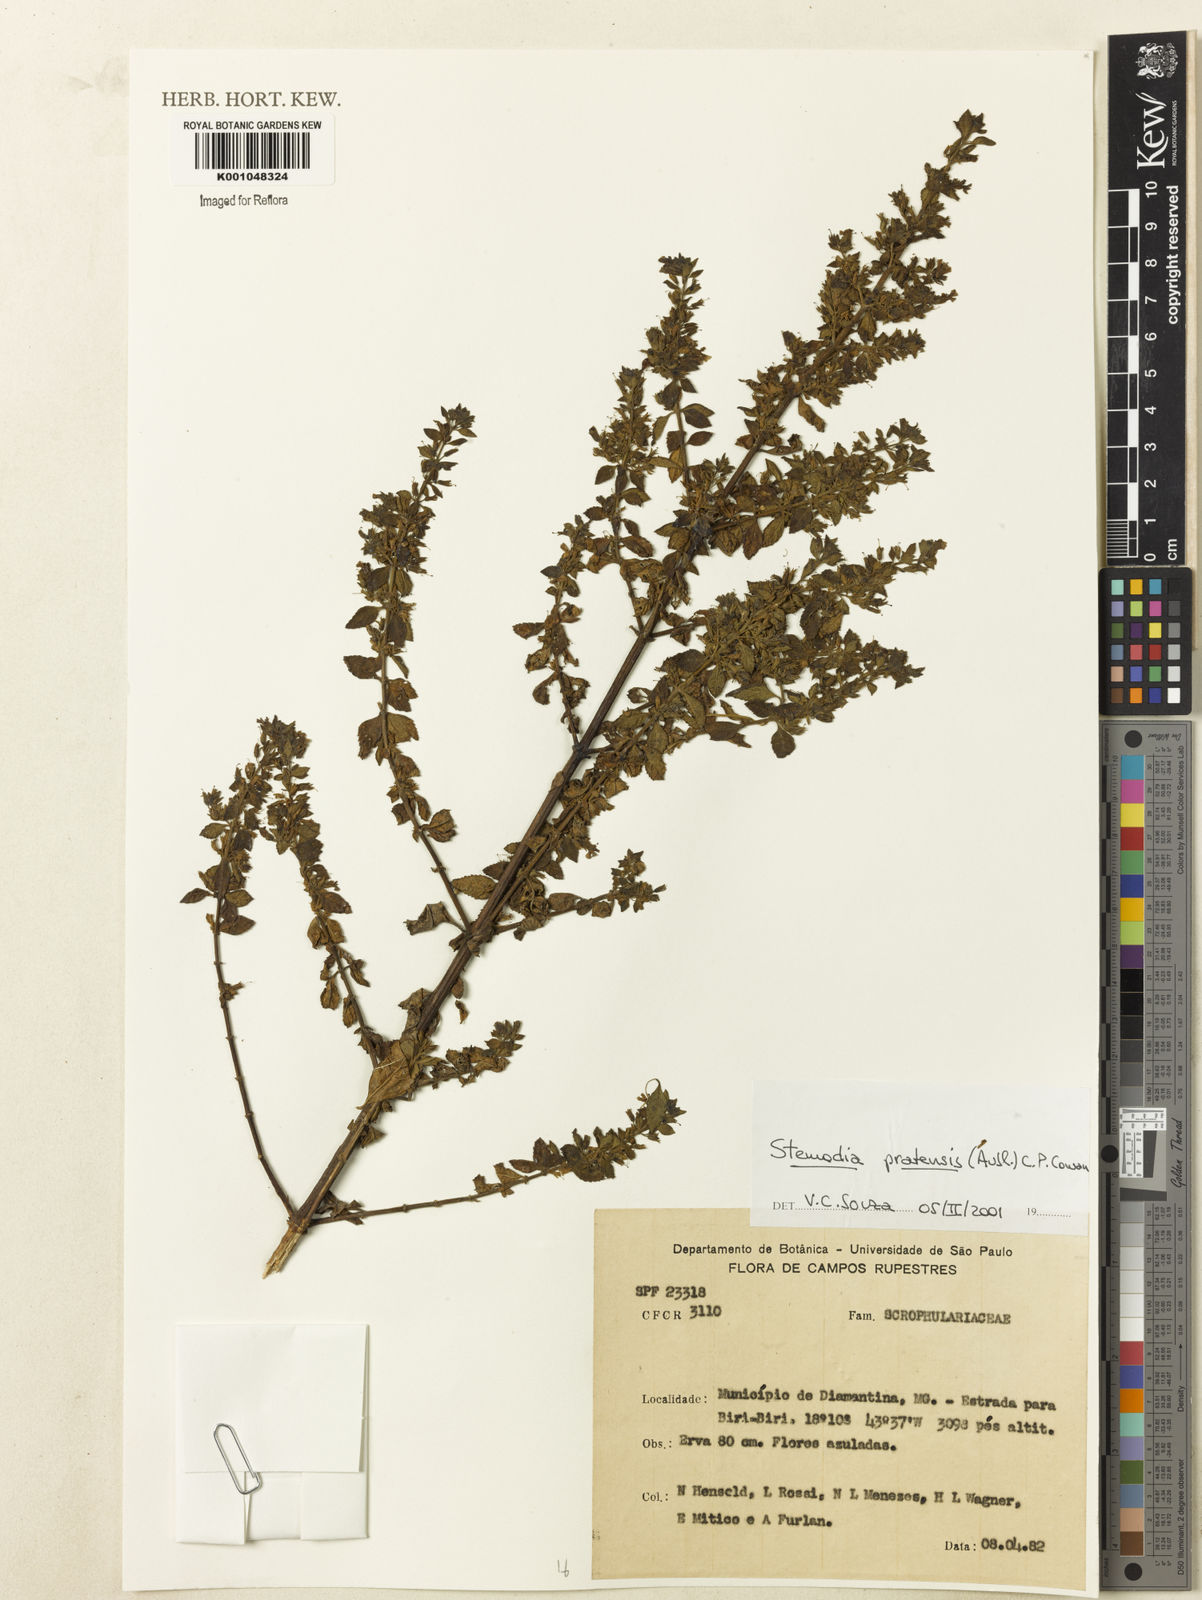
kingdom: Plantae
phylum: Tracheophyta
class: Magnoliopsida
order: Lamiales
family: Plantaginaceae
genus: Stemodia
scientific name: Stemodia foliosa
